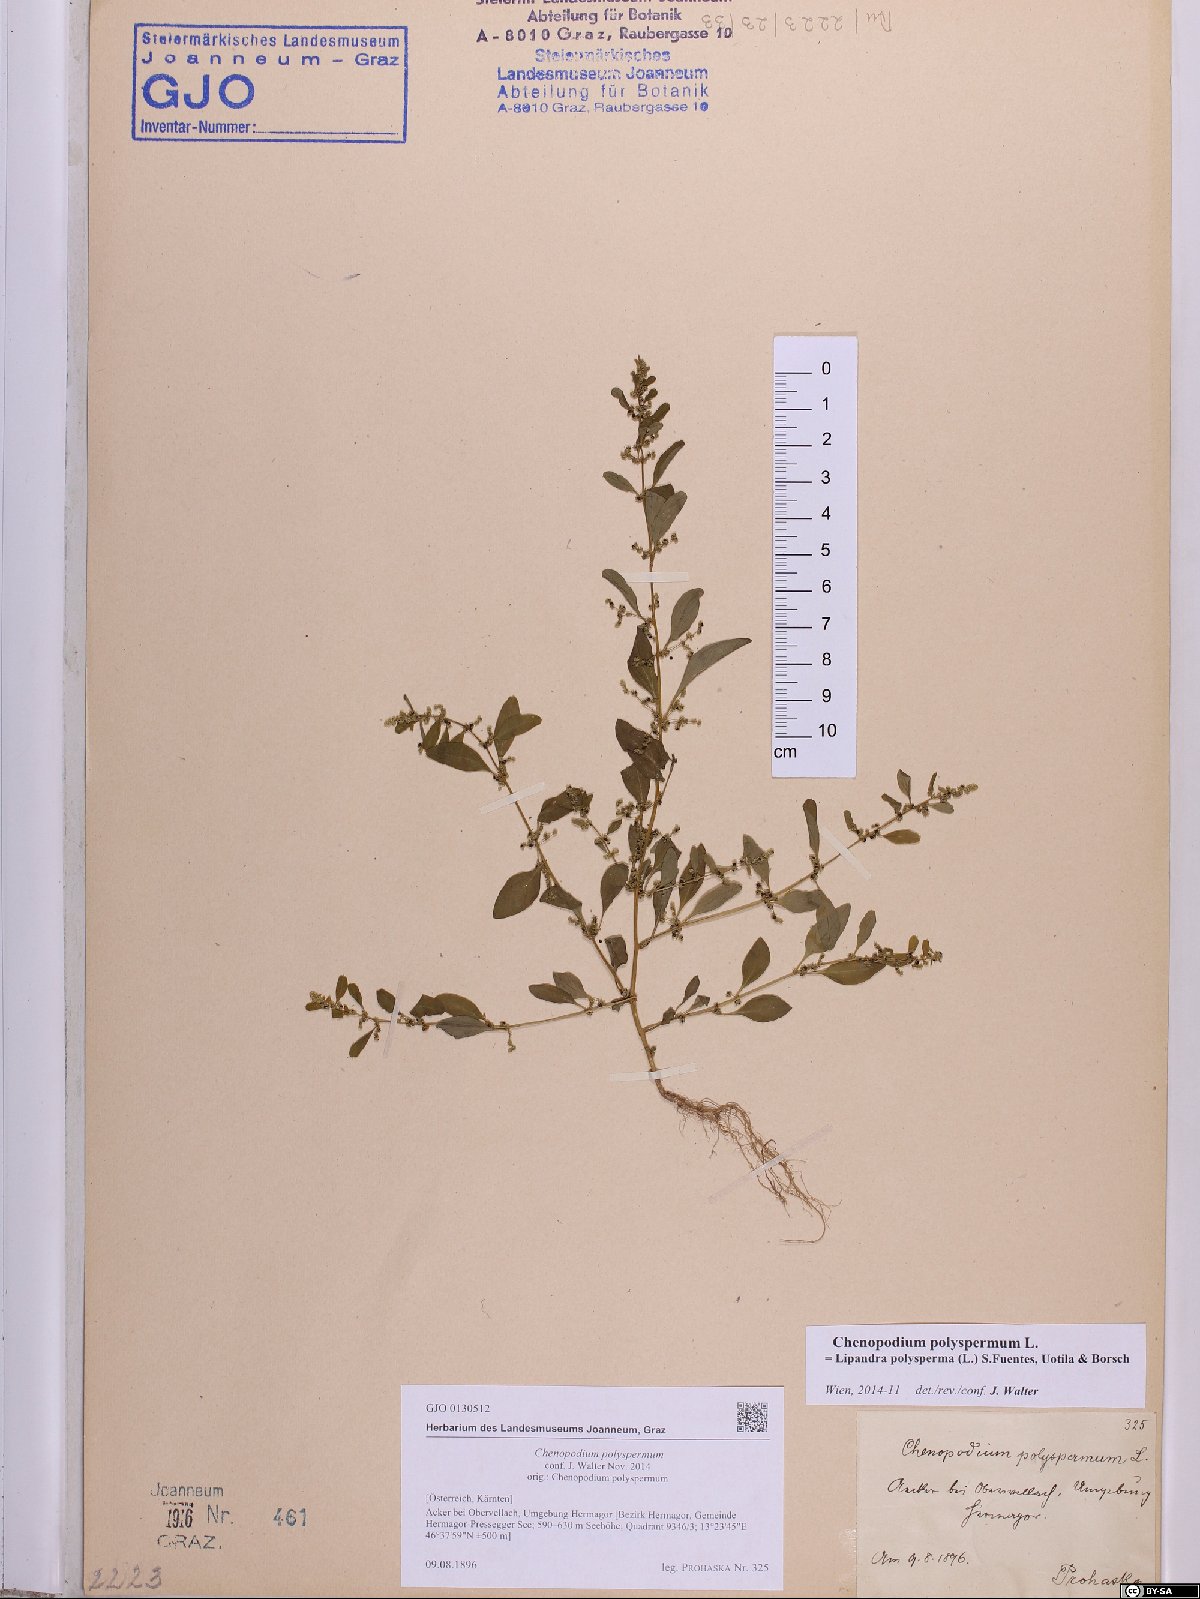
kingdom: Plantae
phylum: Tracheophyta
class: Magnoliopsida
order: Caryophyllales
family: Amaranthaceae
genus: Lipandra
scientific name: Lipandra polysperma
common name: Many-seed goosefoot
